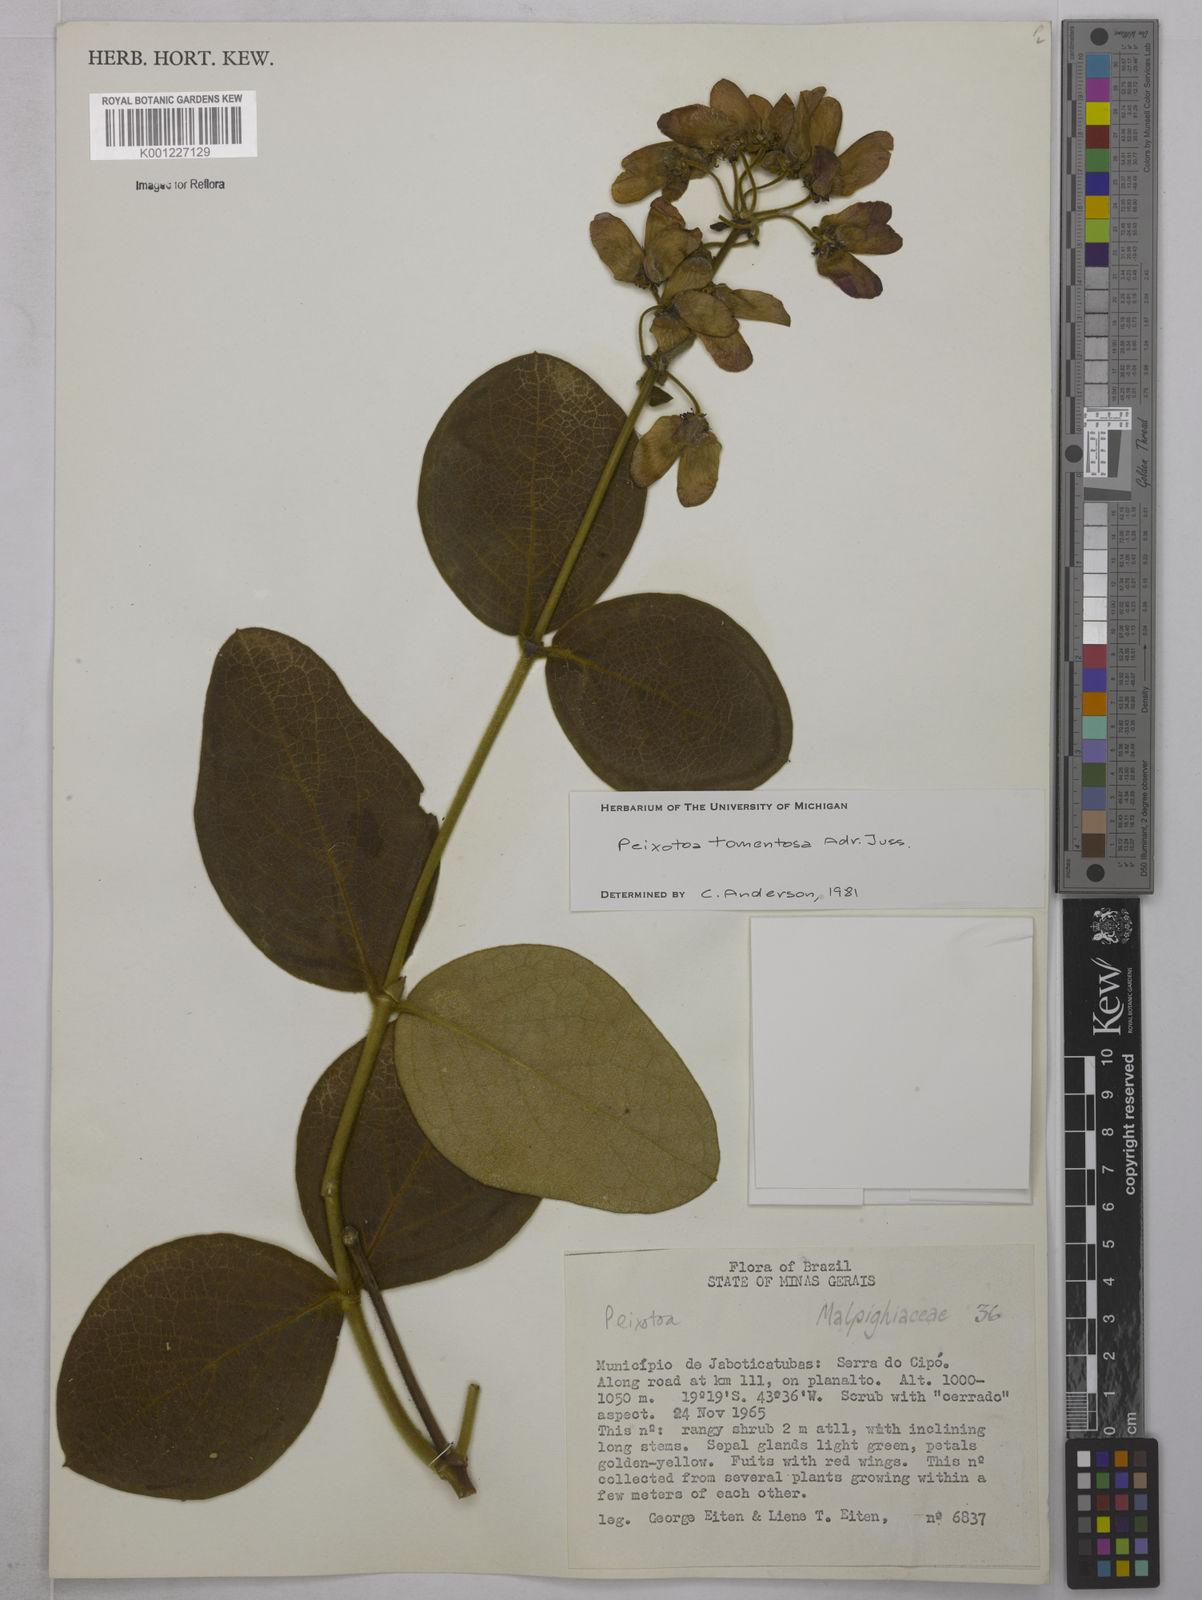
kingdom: Plantae
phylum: Tracheophyta
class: Magnoliopsida
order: Malpighiales
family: Malpighiaceae
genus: Peixotoa
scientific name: Peixotoa tomentosa
